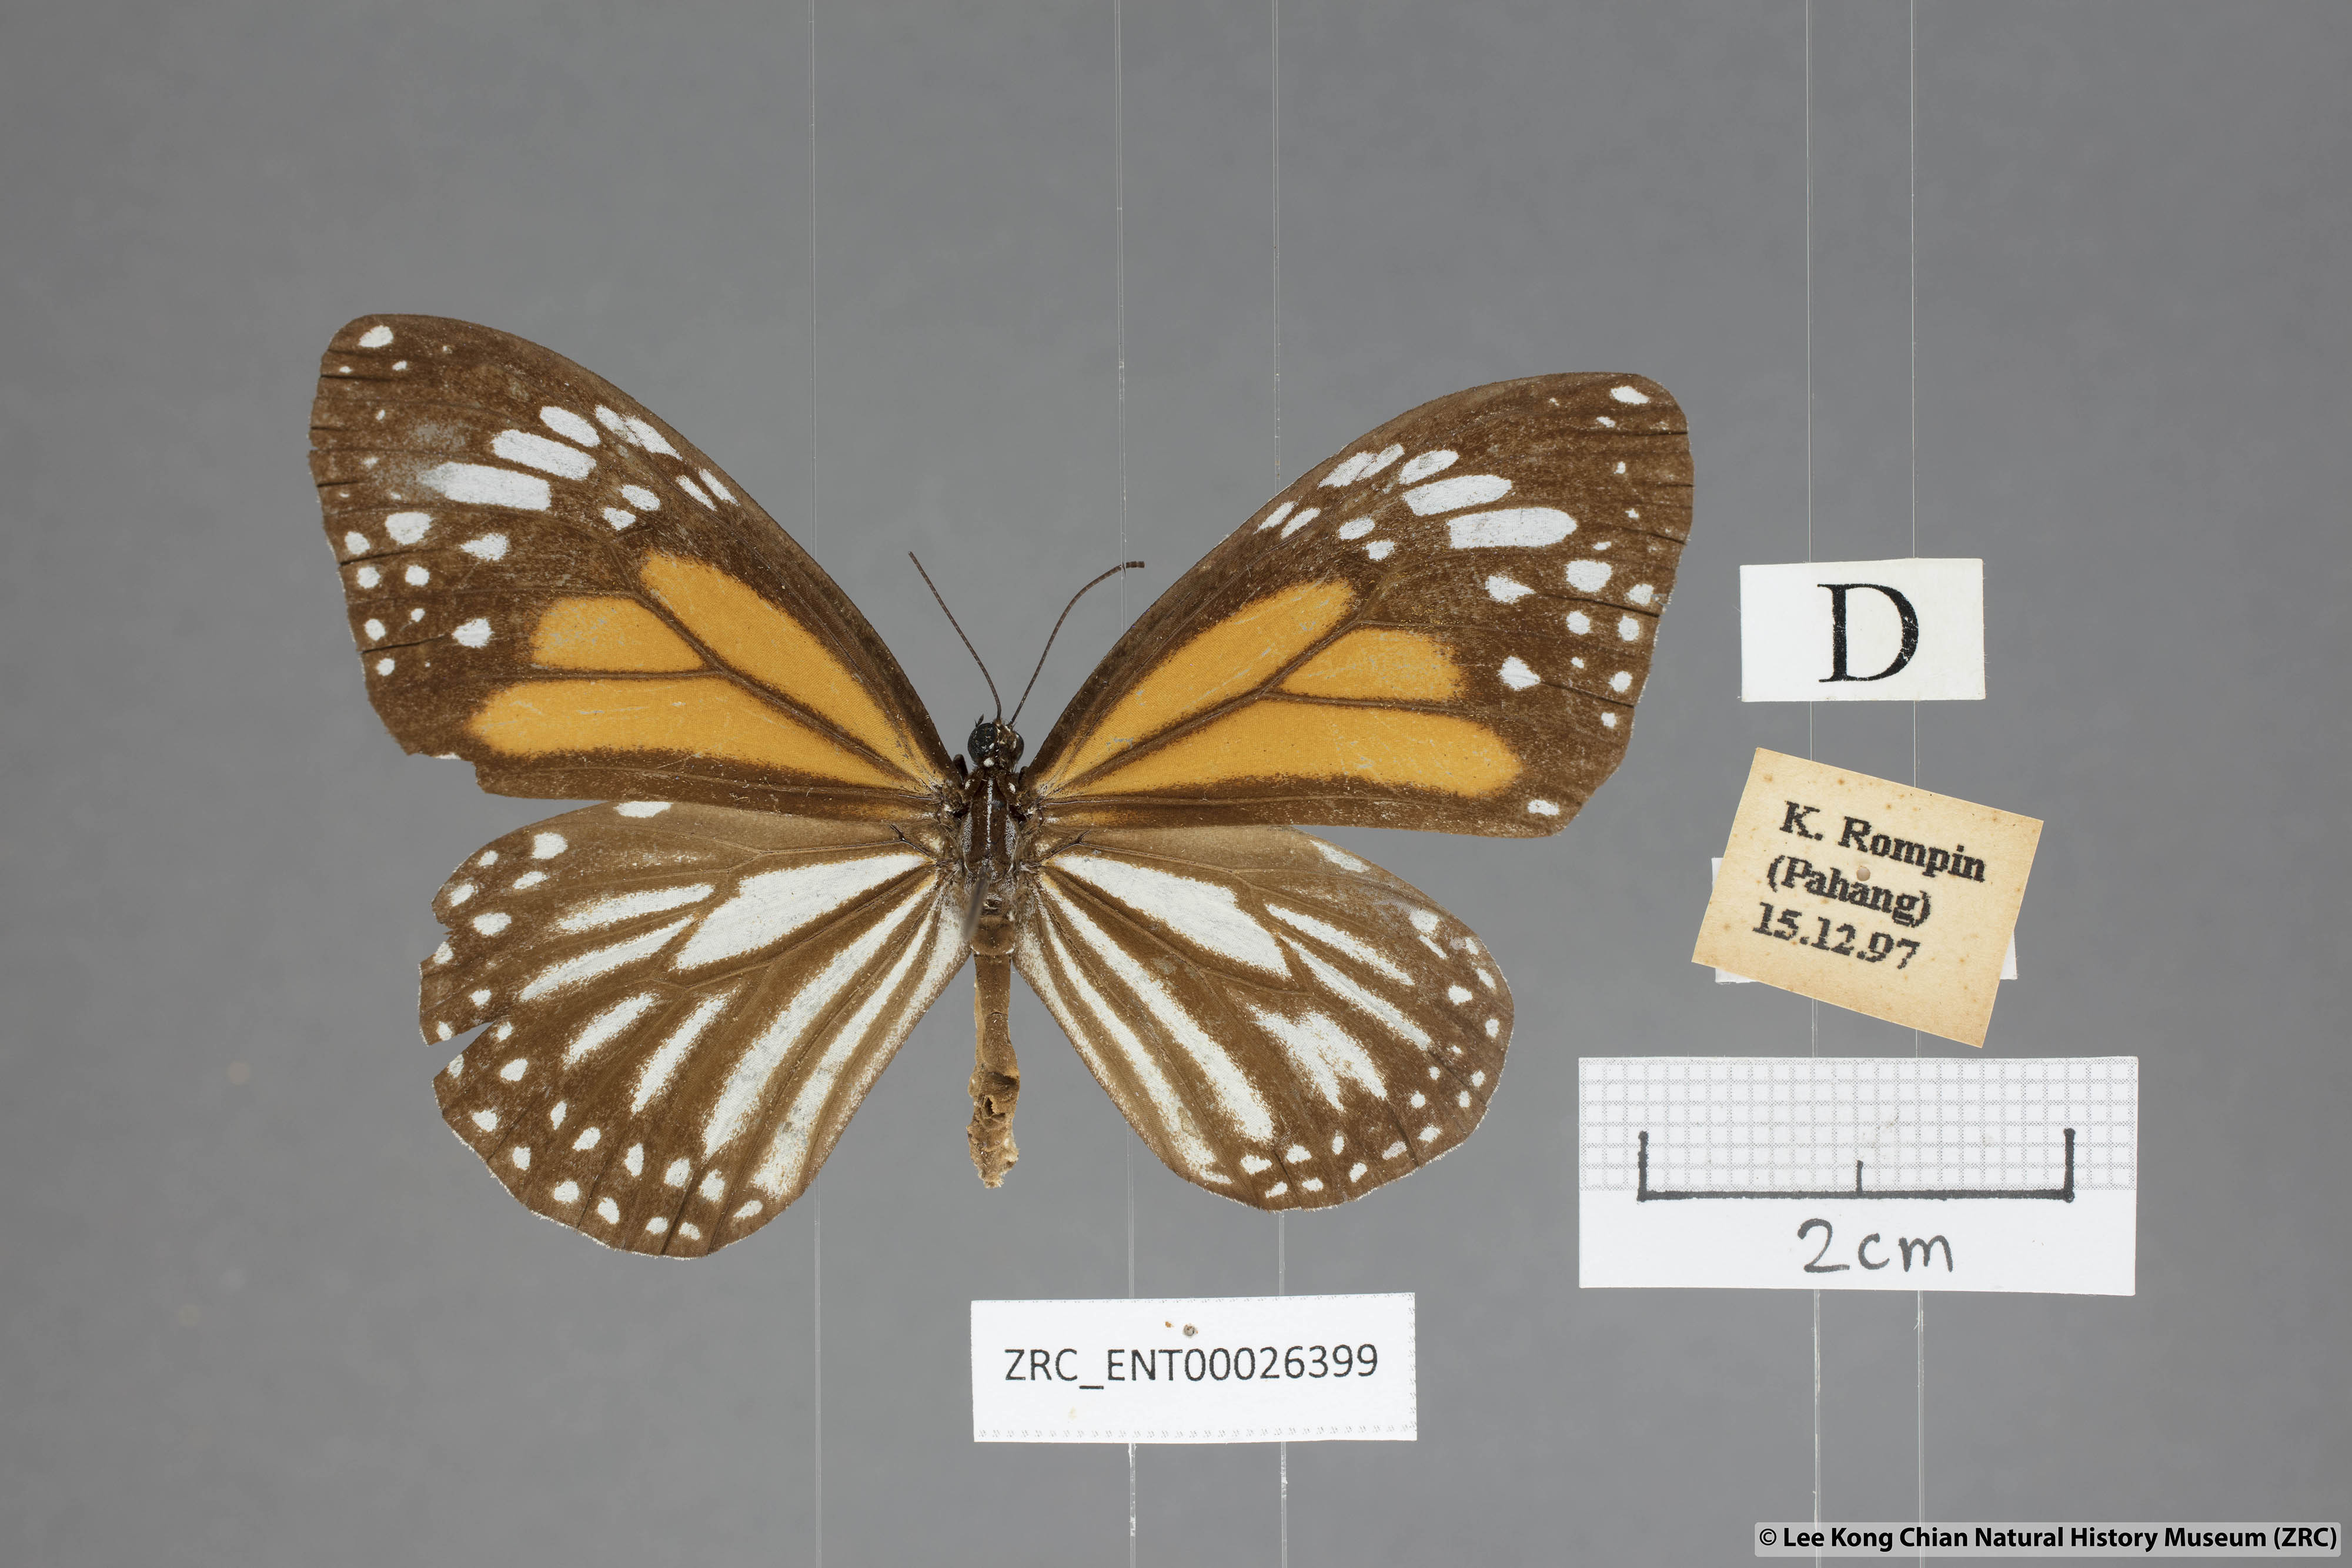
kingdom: Animalia
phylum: Arthropoda
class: Insecta
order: Lepidoptera
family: Nymphalidae
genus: Danaus
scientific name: Danaus melanippus
